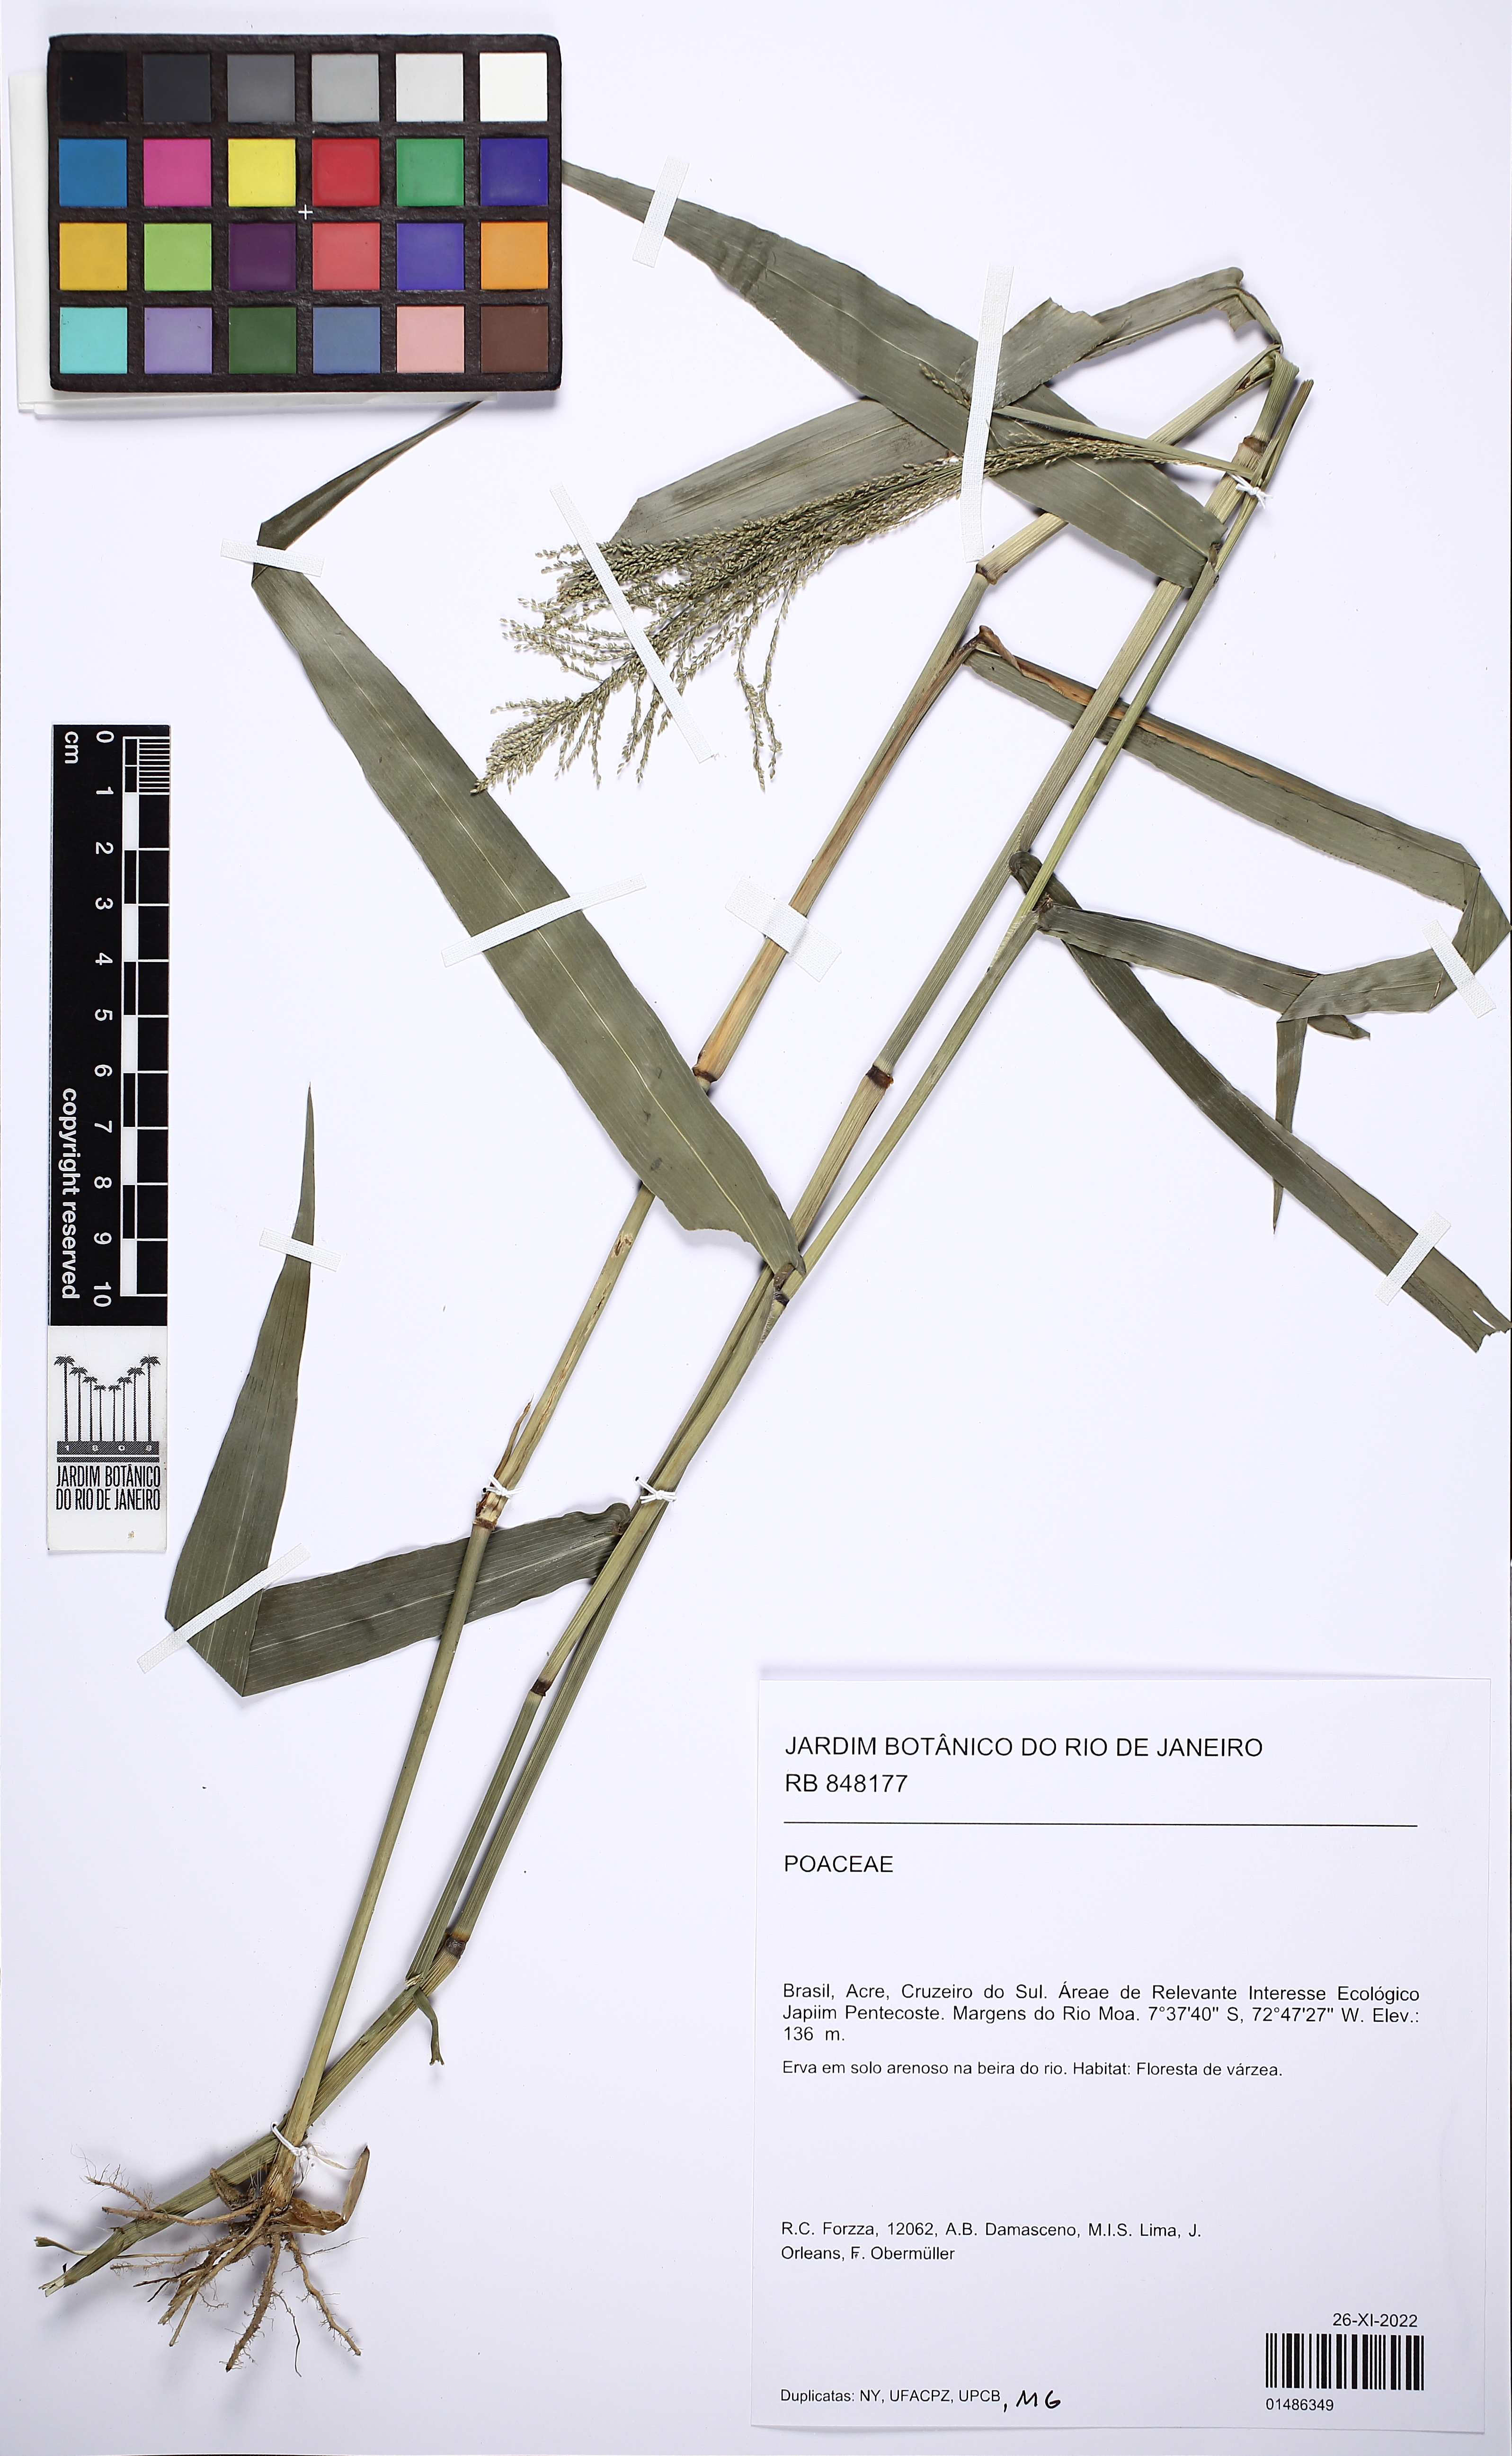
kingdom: Plantae
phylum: Tracheophyta
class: Liliopsida
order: Poales
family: Poaceae
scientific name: Poaceae
